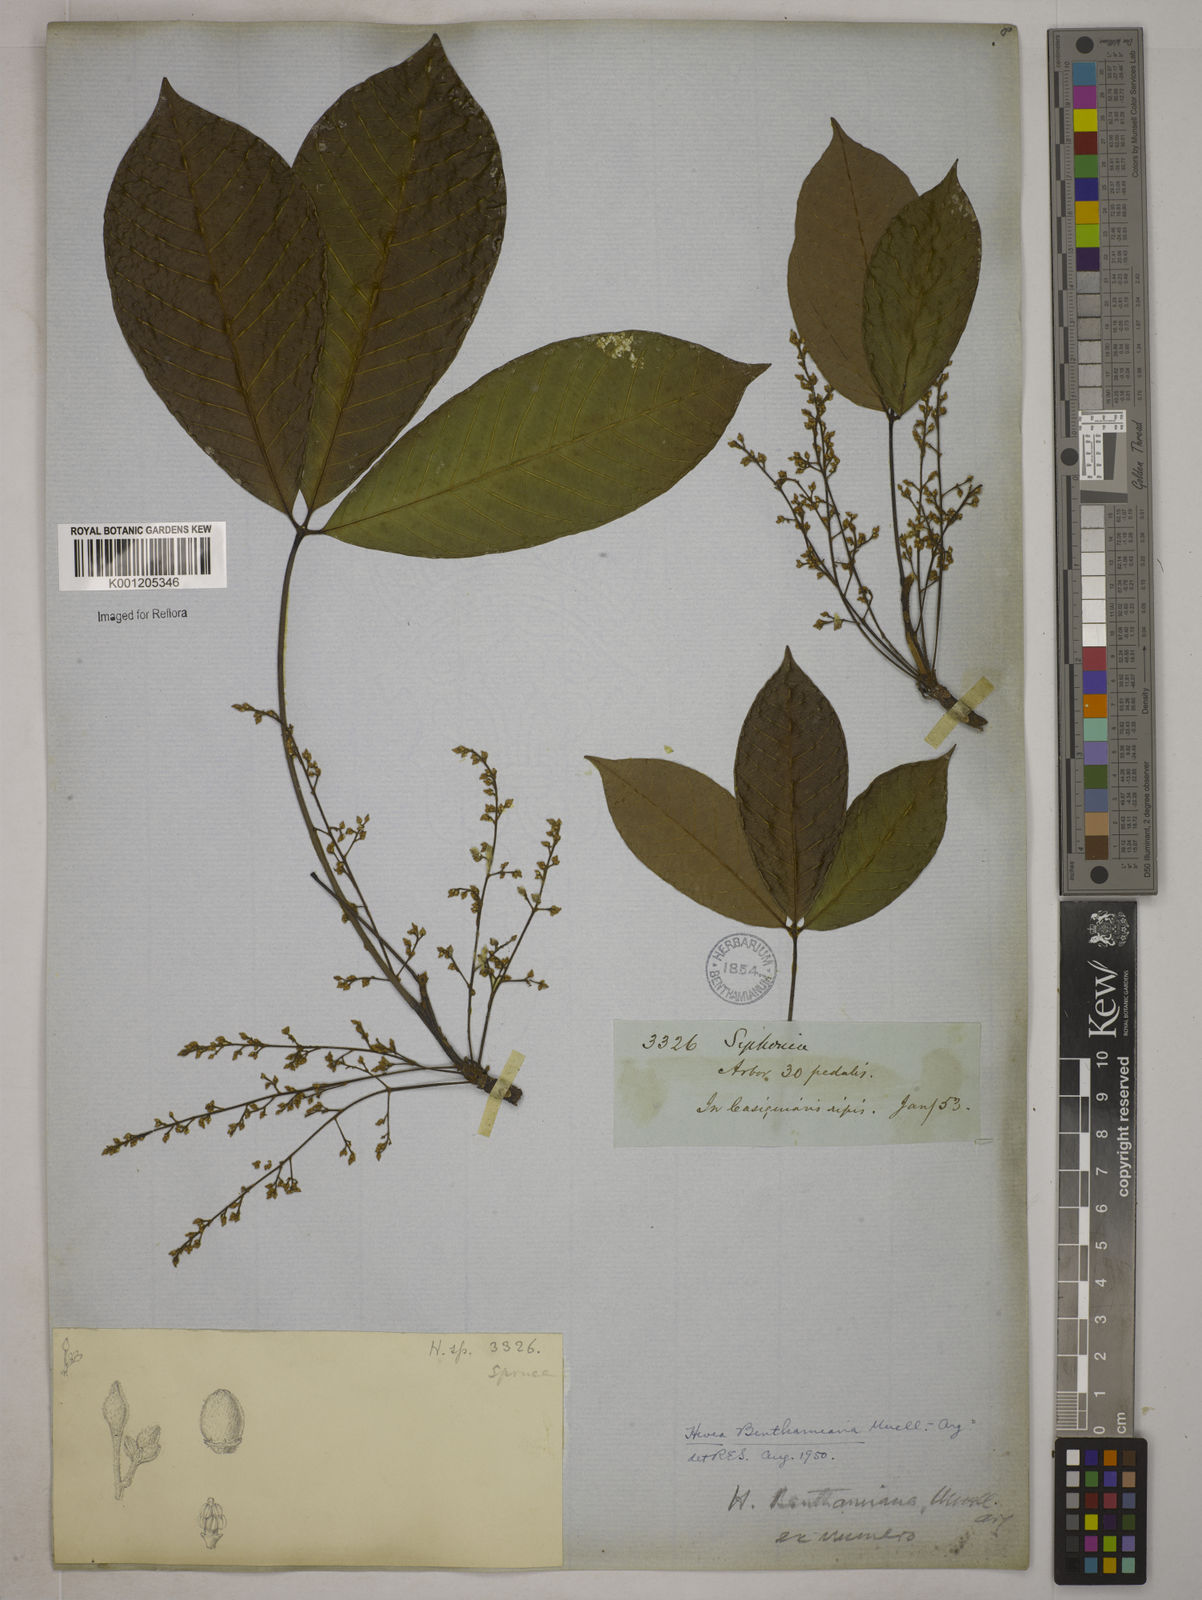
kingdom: Plantae
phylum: Tracheophyta
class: Magnoliopsida
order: Malpighiales
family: Euphorbiaceae
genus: Hevea
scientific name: Hevea
